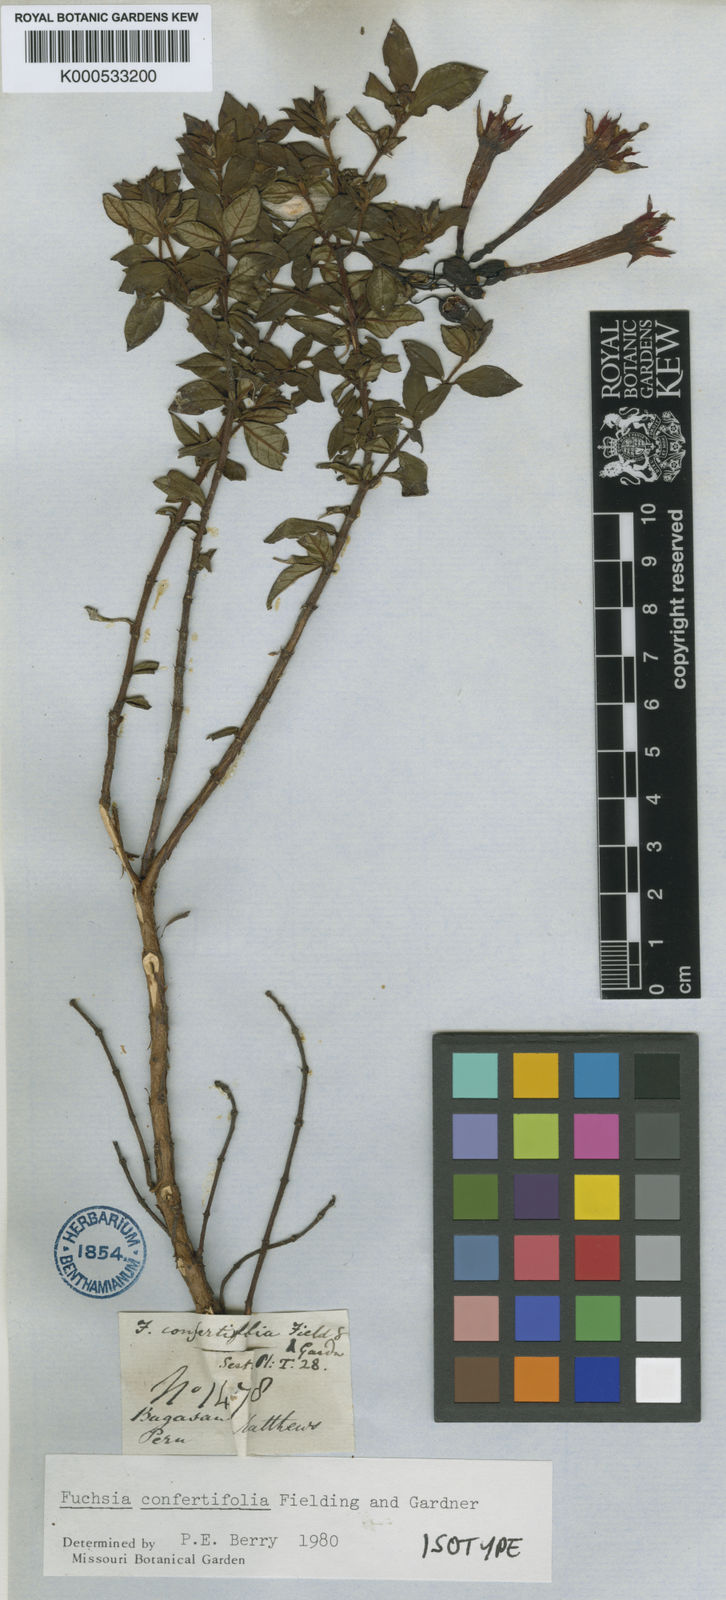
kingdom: Plantae
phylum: Tracheophyta
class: Magnoliopsida
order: Myrtales
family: Onagraceae
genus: Fuchsia
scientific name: Fuchsia confertifolia
